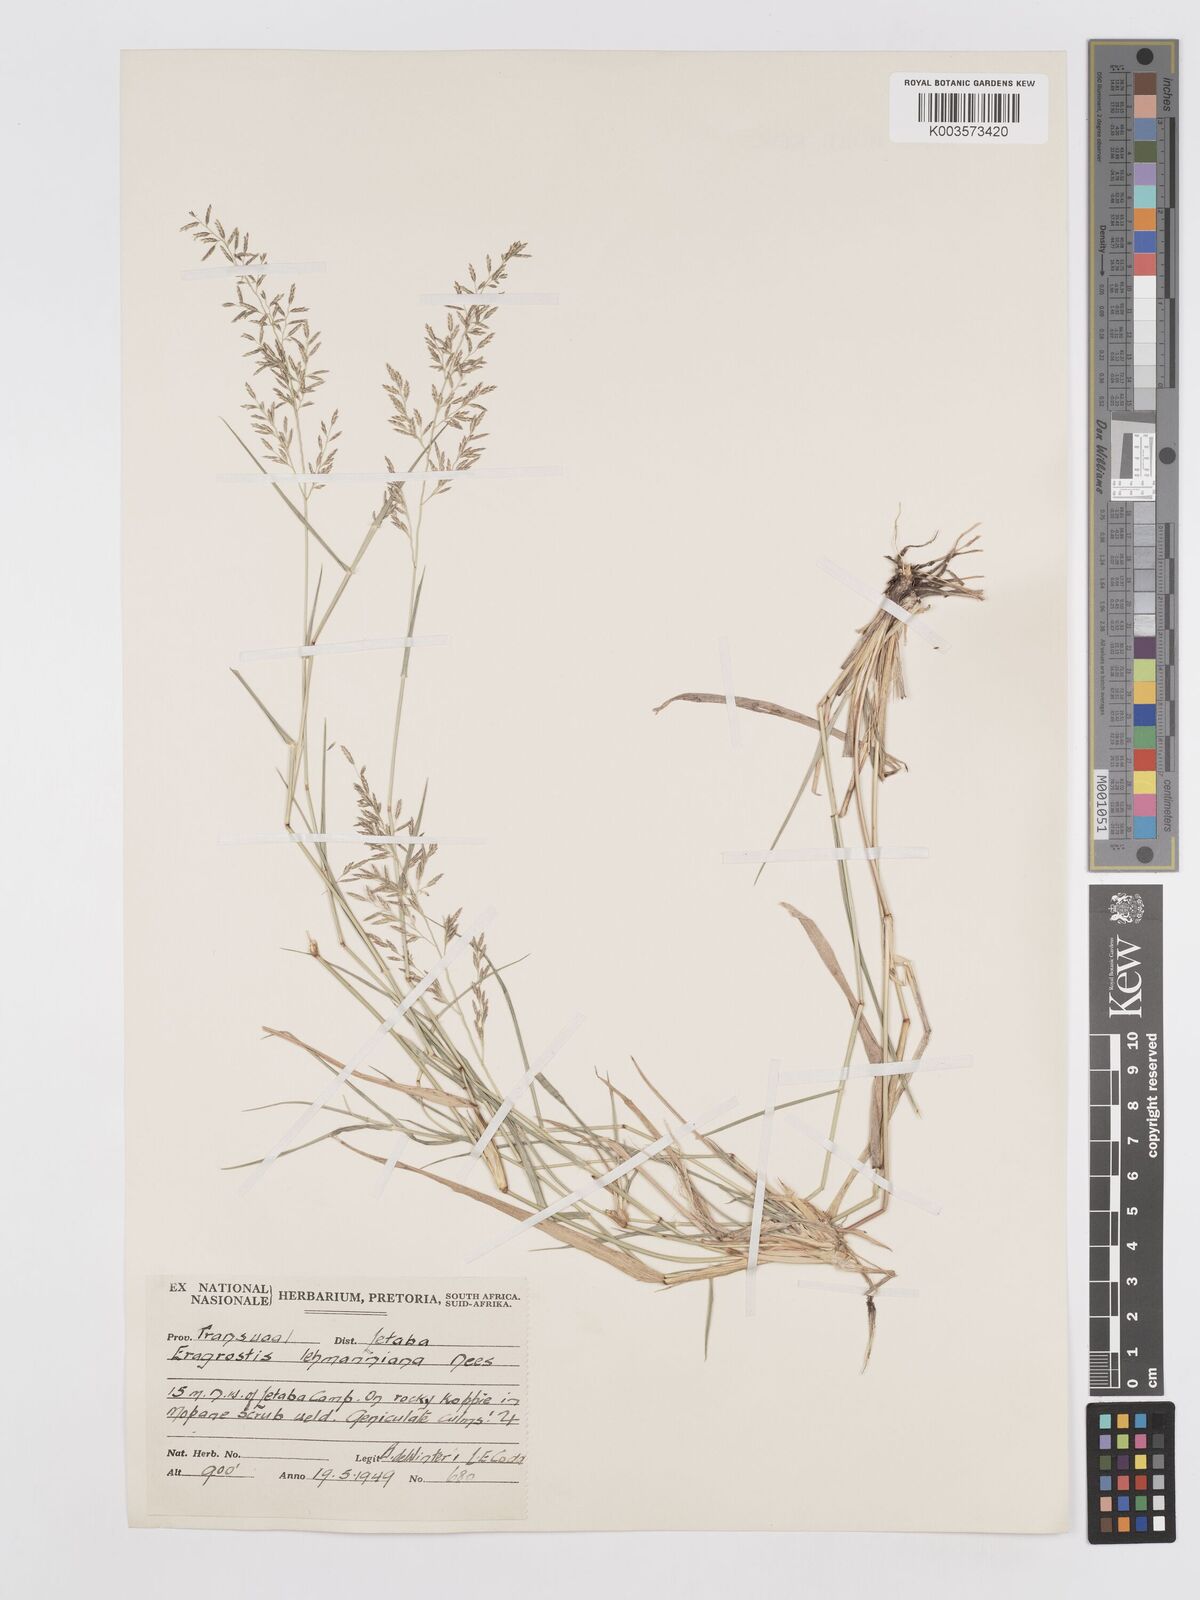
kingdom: Plantae
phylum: Tracheophyta
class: Liliopsida
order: Poales
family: Poaceae
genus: Eragrostis
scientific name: Eragrostis lehmanniana
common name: Lehmann lovegrass
